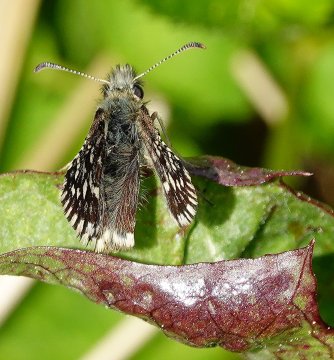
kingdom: Animalia
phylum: Arthropoda
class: Insecta
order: Lepidoptera
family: Hesperiidae
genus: Pyrgus
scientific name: Pyrgus centaureae
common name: Grizzled Skipper
